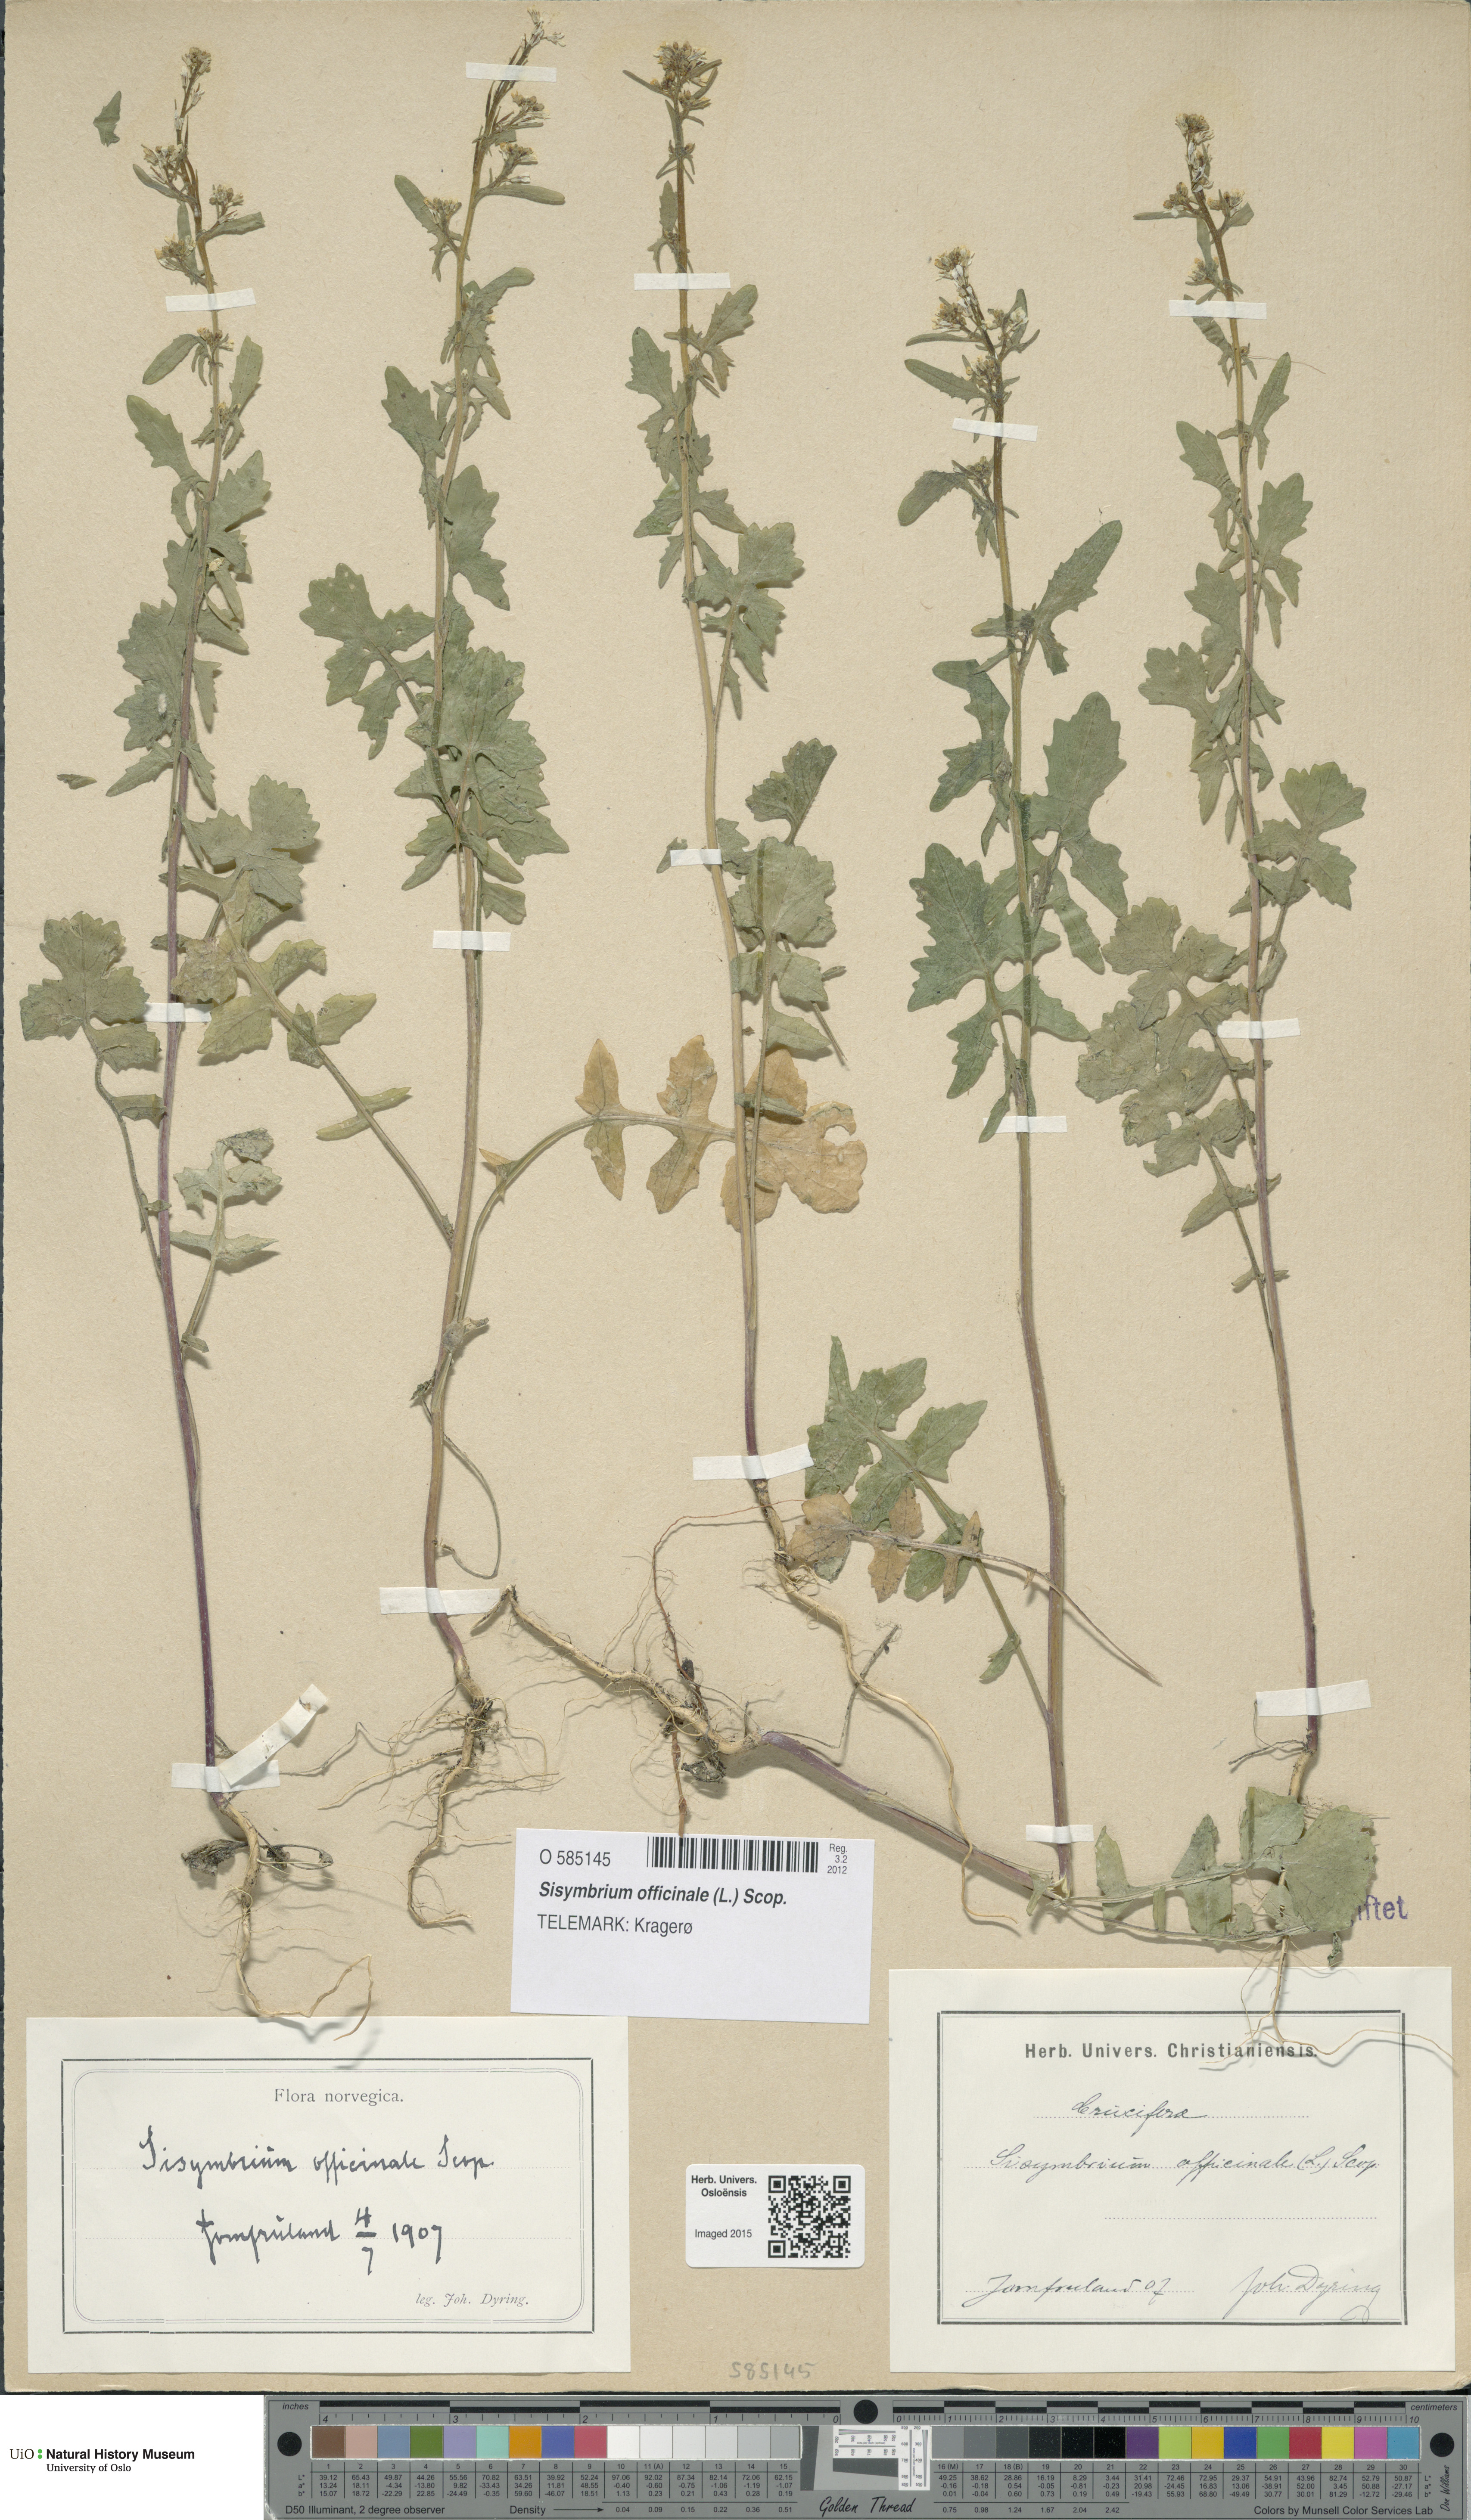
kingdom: Plantae
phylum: Tracheophyta
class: Magnoliopsida
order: Brassicales
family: Brassicaceae
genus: Sisymbrium
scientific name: Sisymbrium officinale
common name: Hedge mustard
